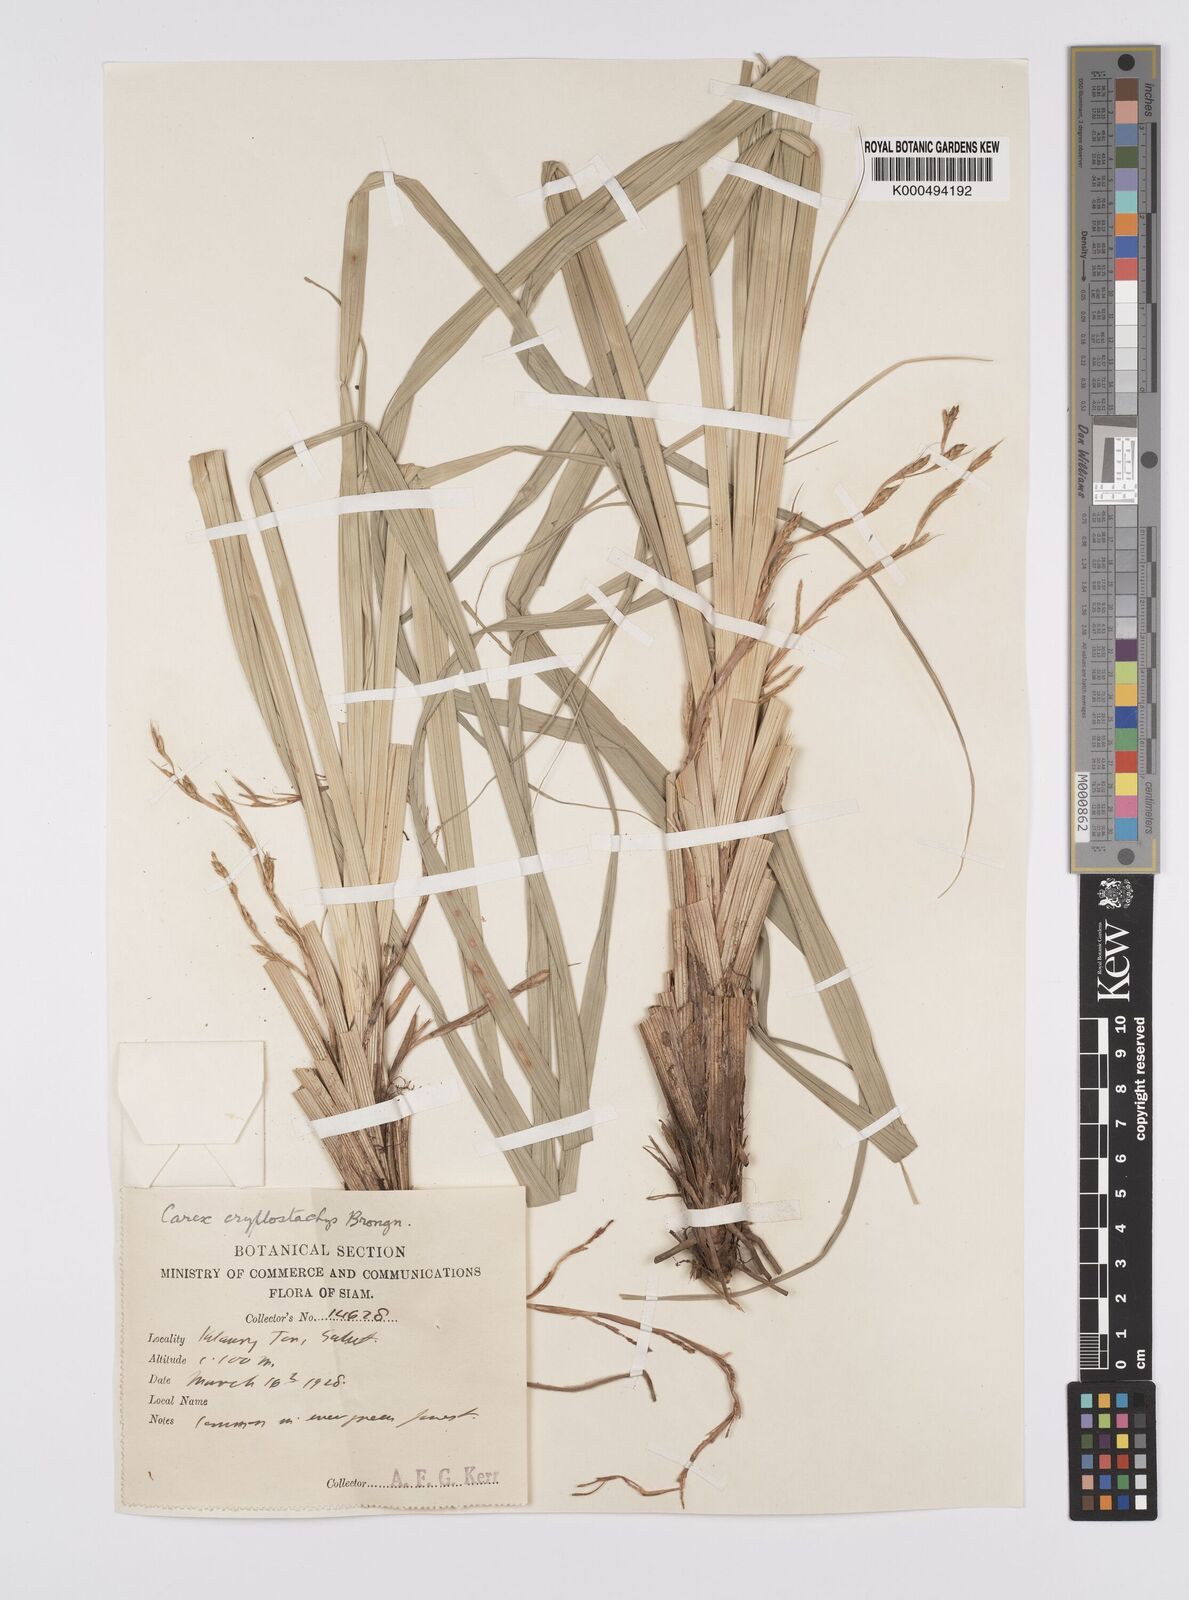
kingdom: Plantae
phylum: Tracheophyta
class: Liliopsida
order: Poales
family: Cyperaceae
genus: Carex
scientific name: Carex cryptostachys
